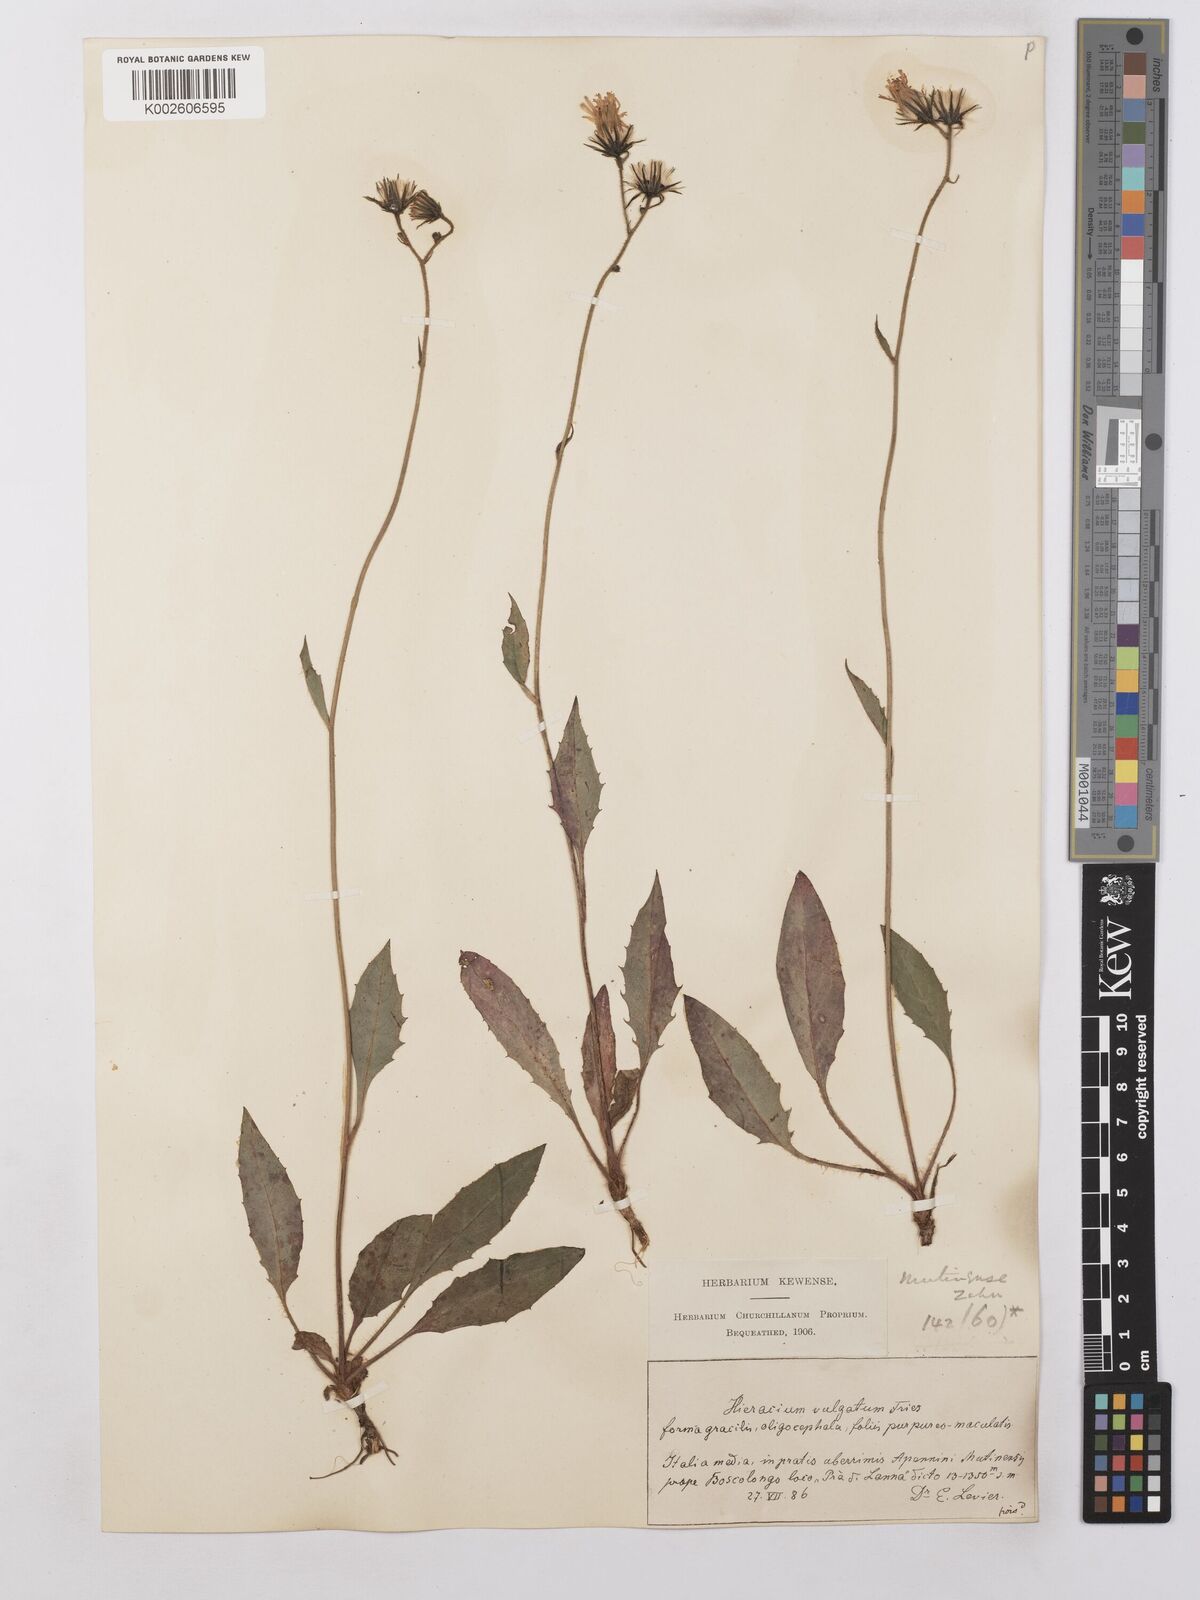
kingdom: Plantae
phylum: Tracheophyta
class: Magnoliopsida
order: Asterales
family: Asteraceae
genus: Hieracium
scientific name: Hieracium lachenalii
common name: Common hawkweed
